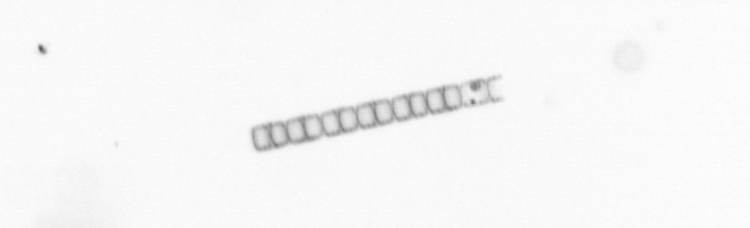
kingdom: Chromista
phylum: Ochrophyta
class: Bacillariophyceae
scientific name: Bacillariophyceae
